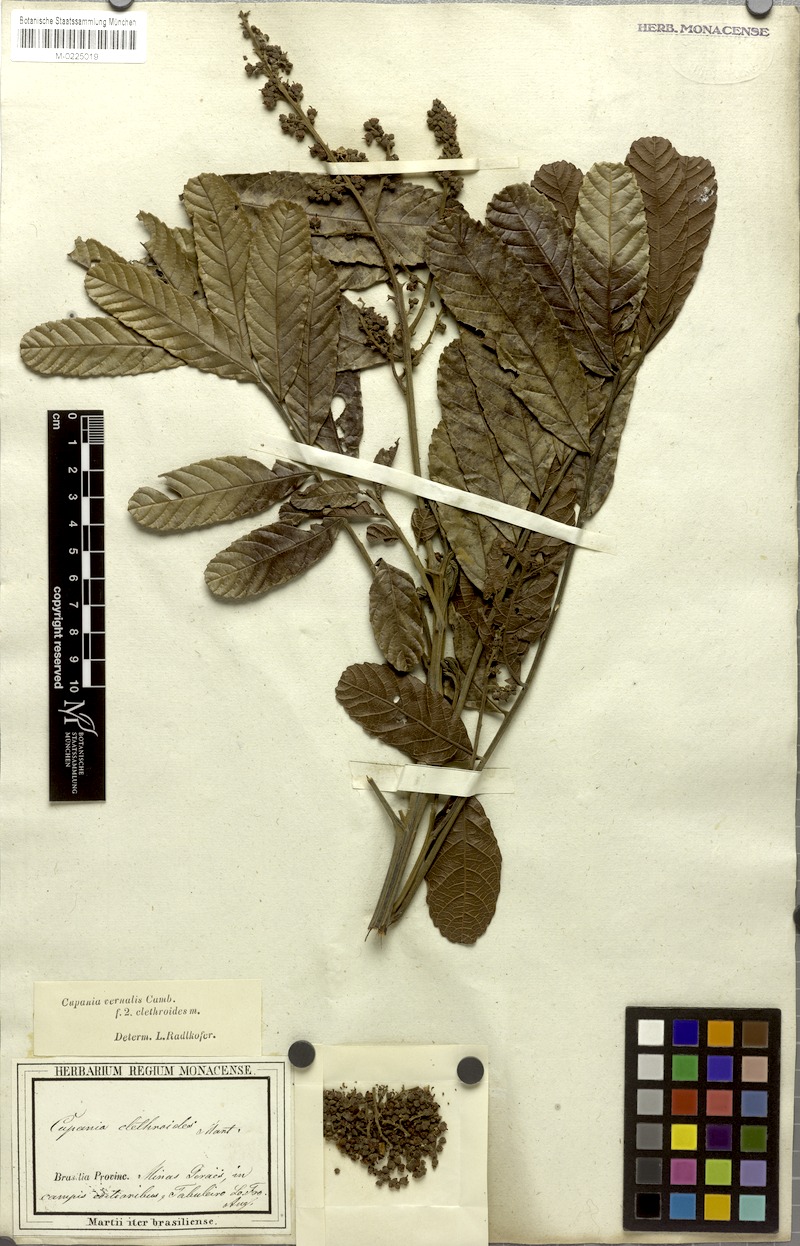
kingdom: Plantae
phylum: Tracheophyta
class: Magnoliopsida
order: Sapindales
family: Sapindaceae
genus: Cupania
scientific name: Cupania vernalis
